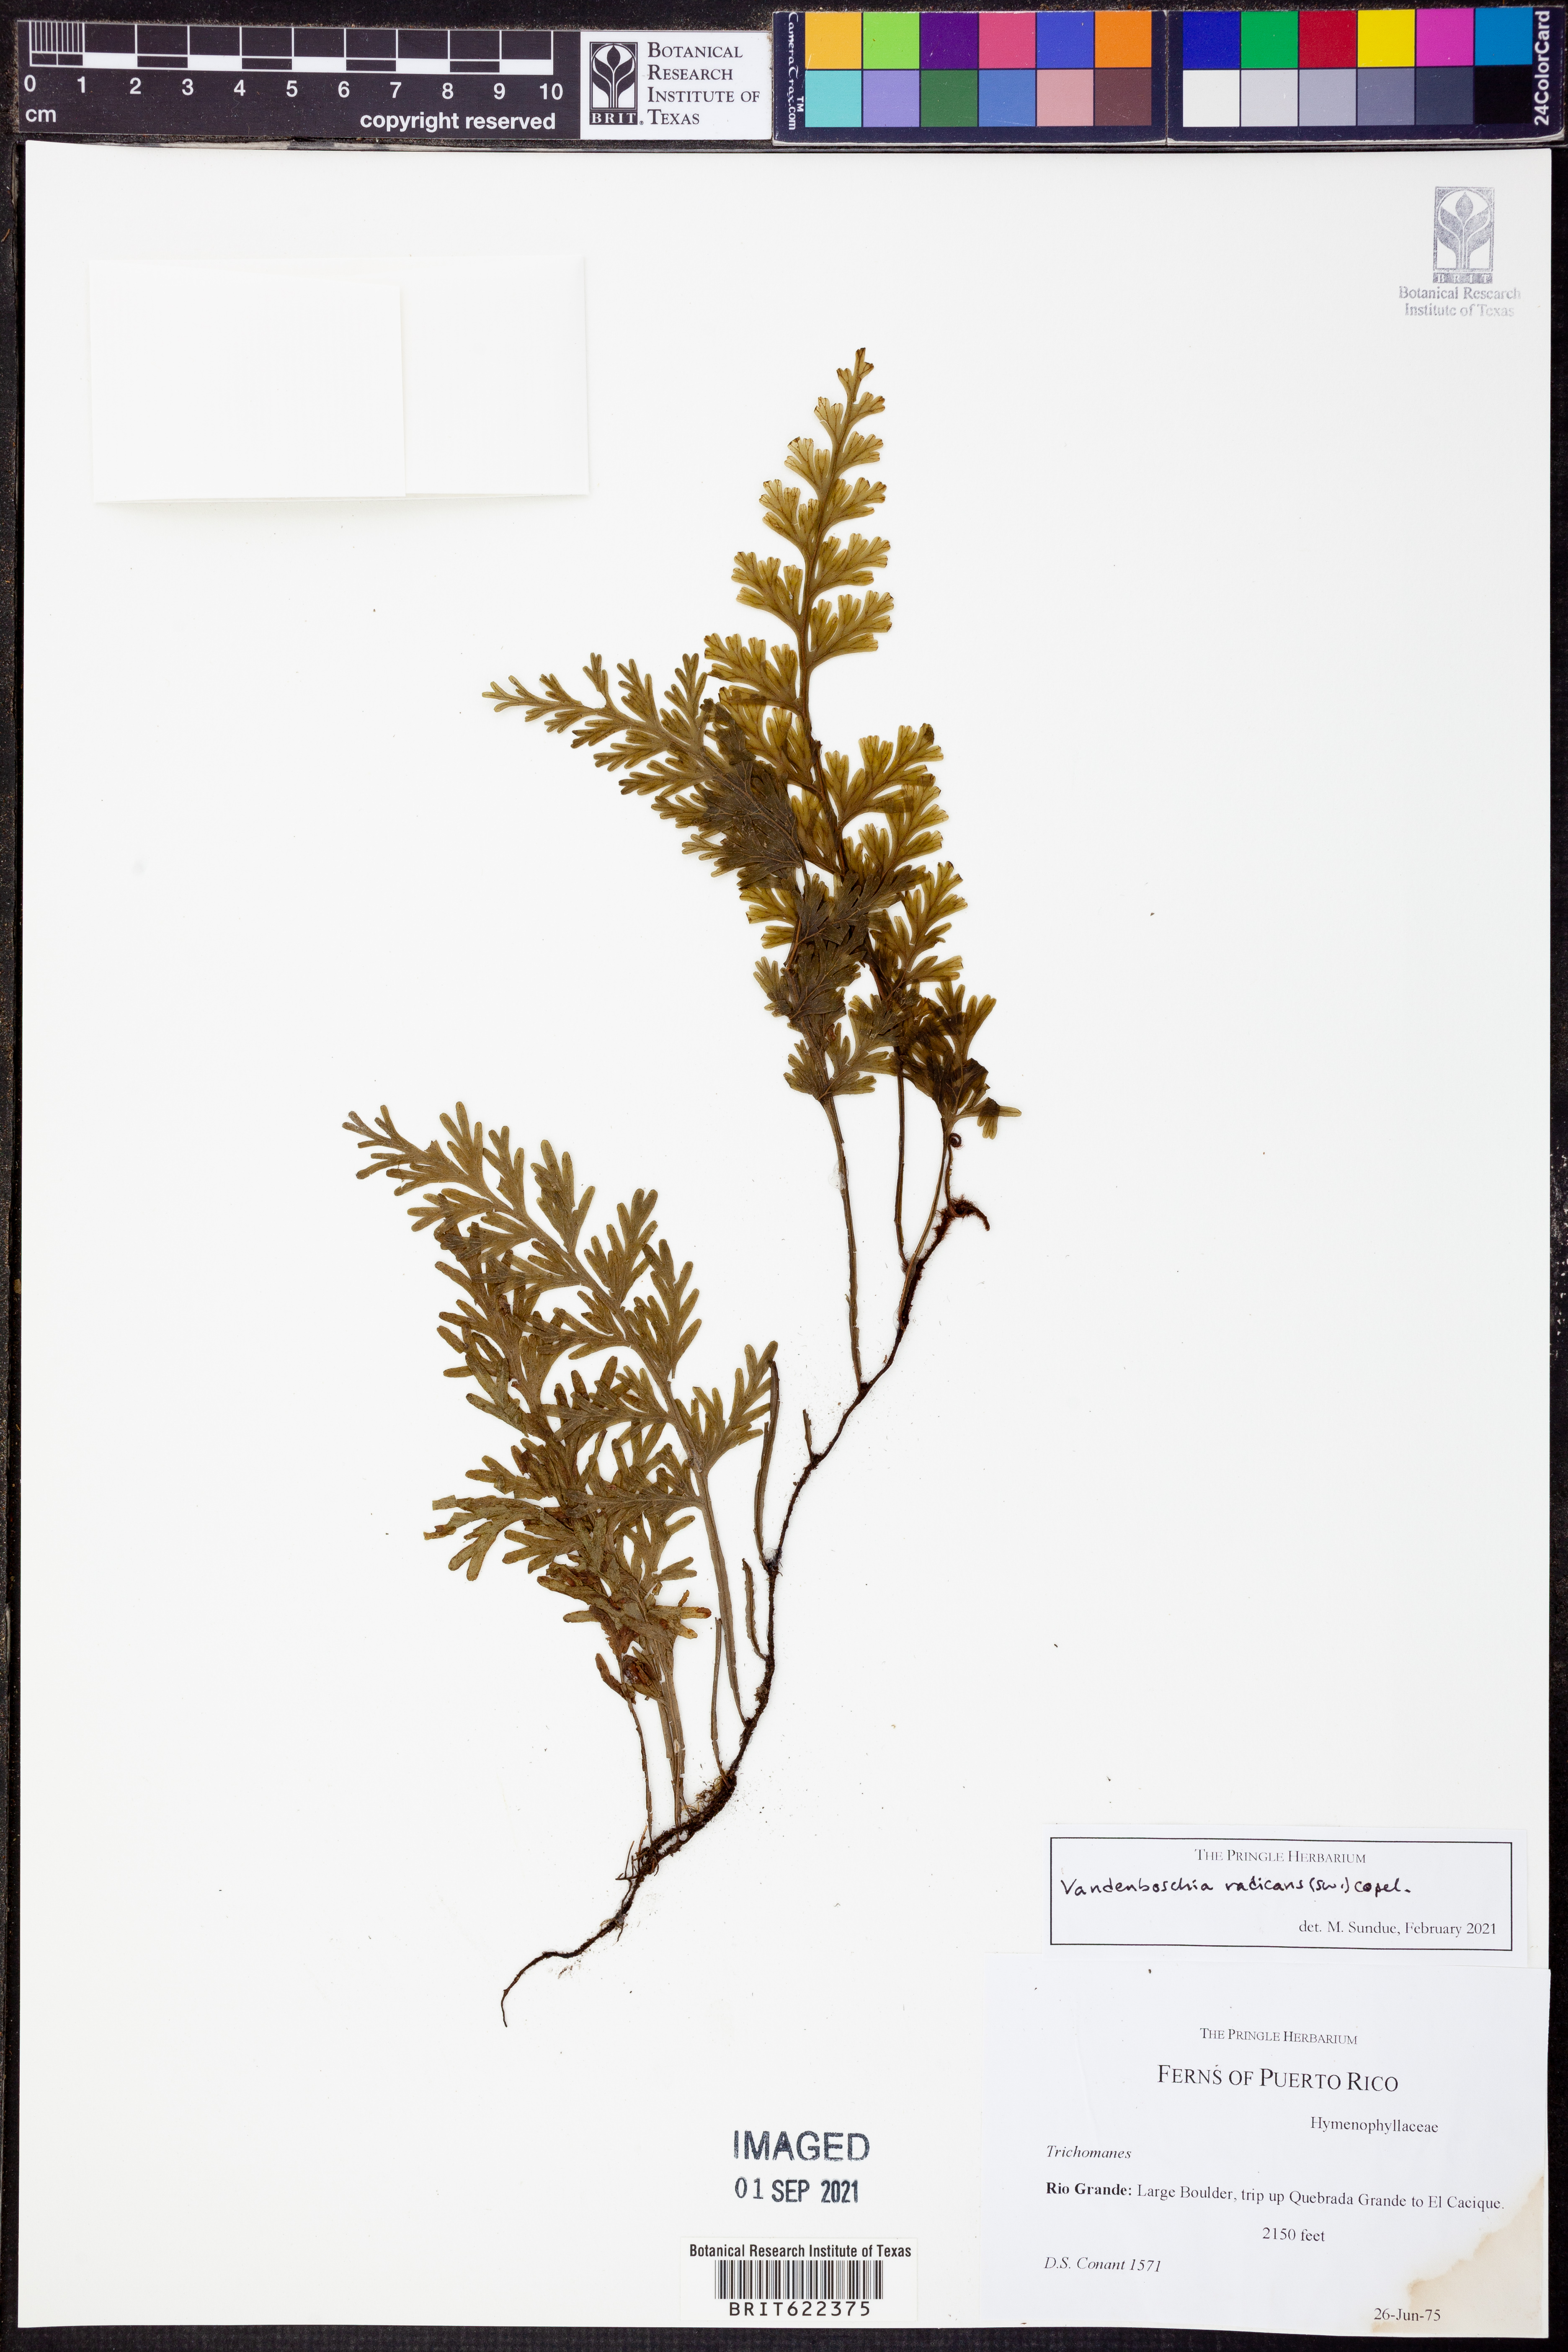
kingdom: Plantae
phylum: Tracheophyta
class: Polypodiopsida
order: Hymenophyllales
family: Hymenophyllaceae
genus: Vandenboschia
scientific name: Vandenboschia radicans
